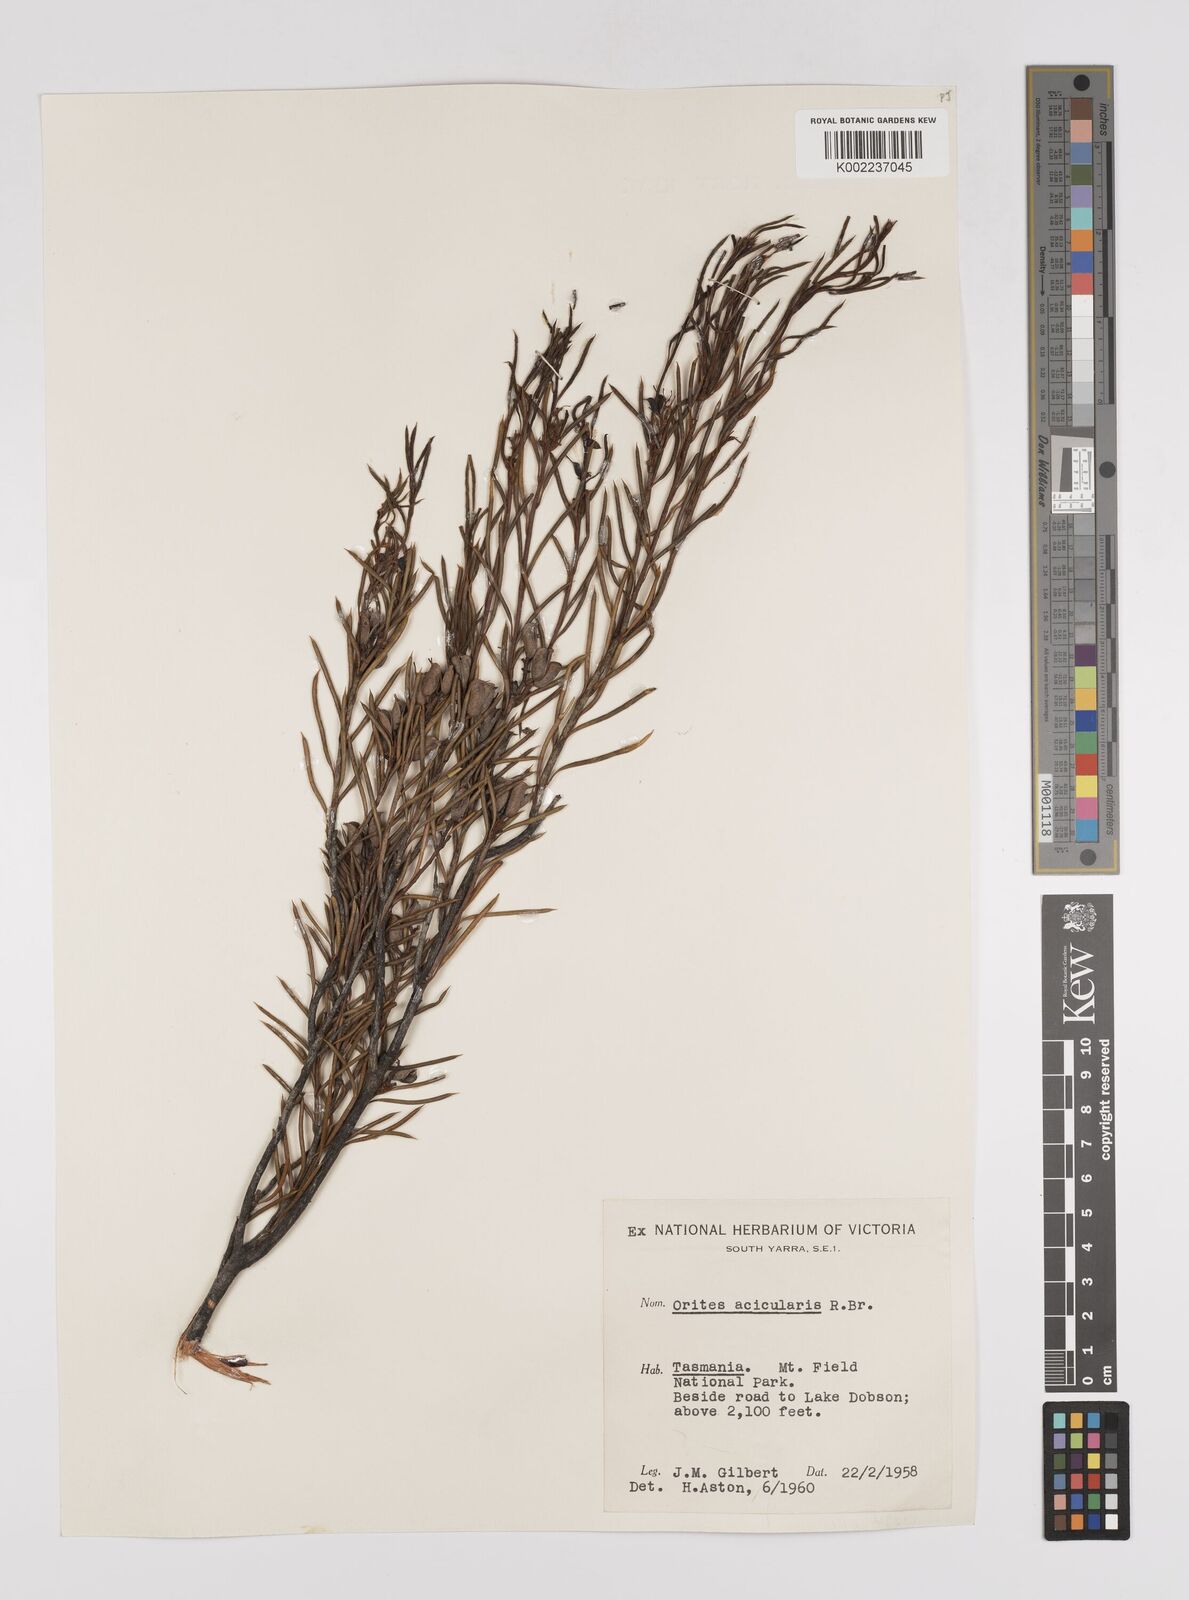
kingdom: Plantae
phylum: Tracheophyta
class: Magnoliopsida
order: Proteales
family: Proteaceae
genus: Orites
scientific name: Orites acicularis
